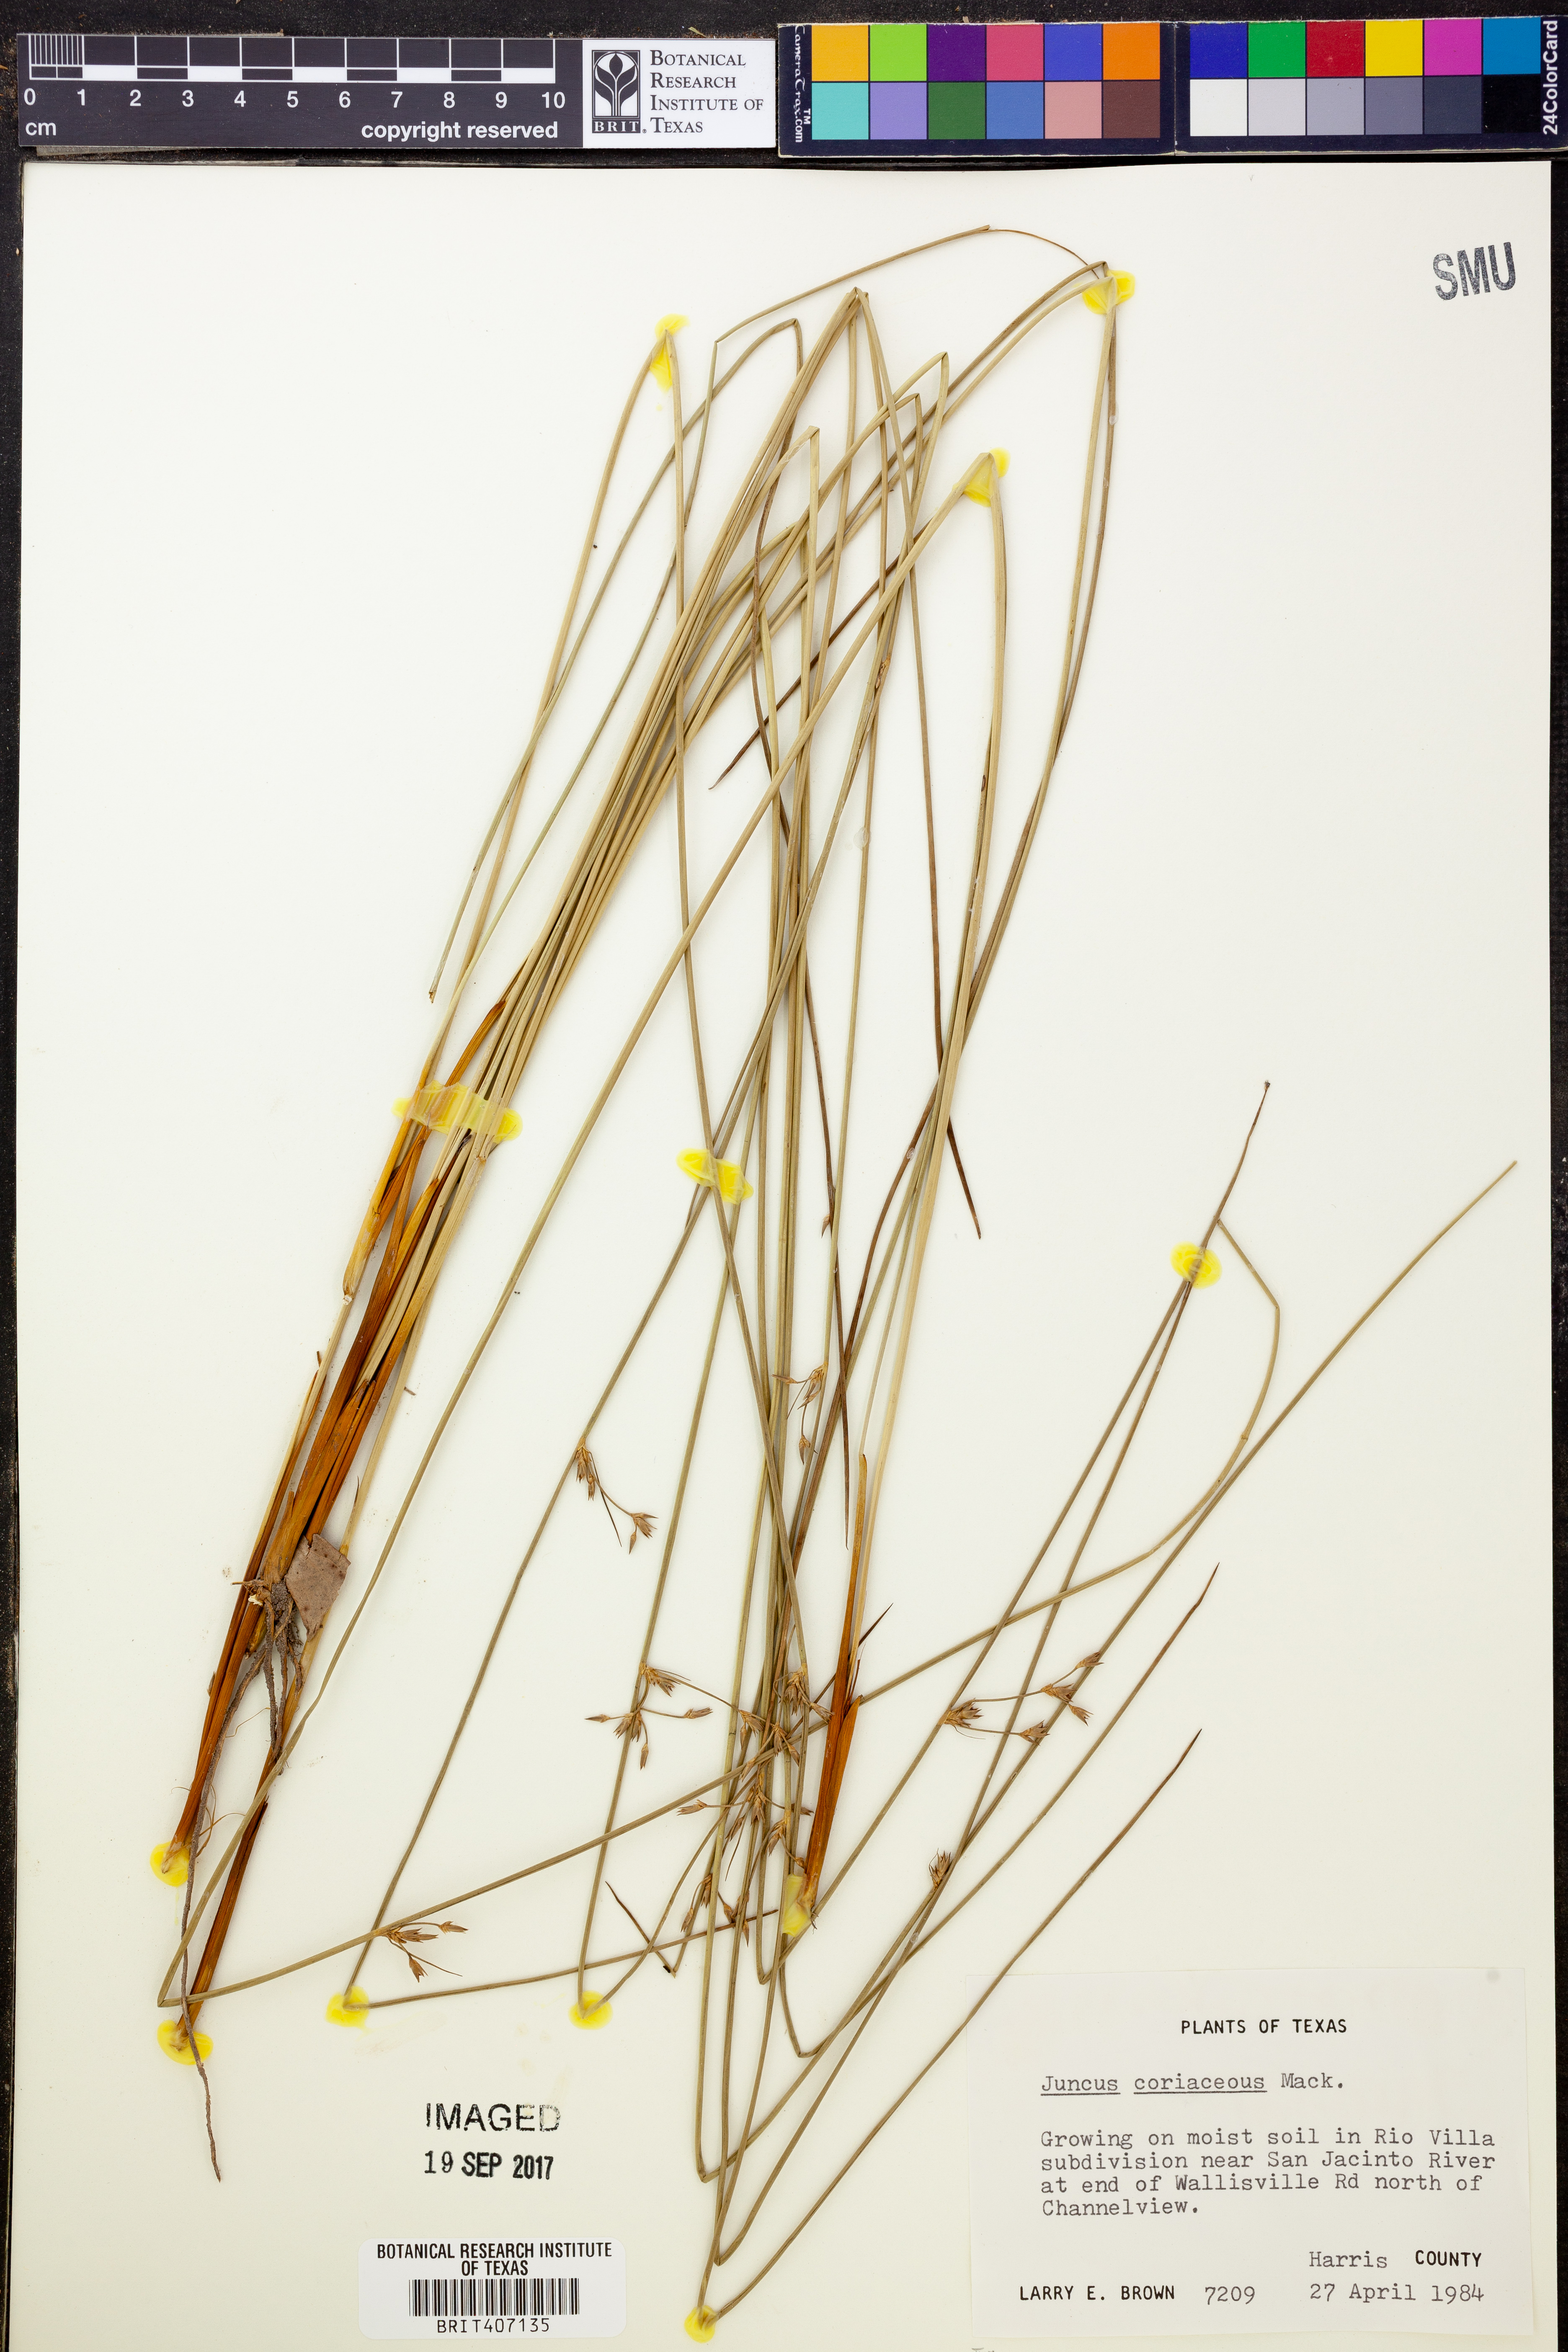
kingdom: Plantae
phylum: Tracheophyta
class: Liliopsida
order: Poales
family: Juncaceae
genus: Juncus
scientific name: Juncus coriaceus
